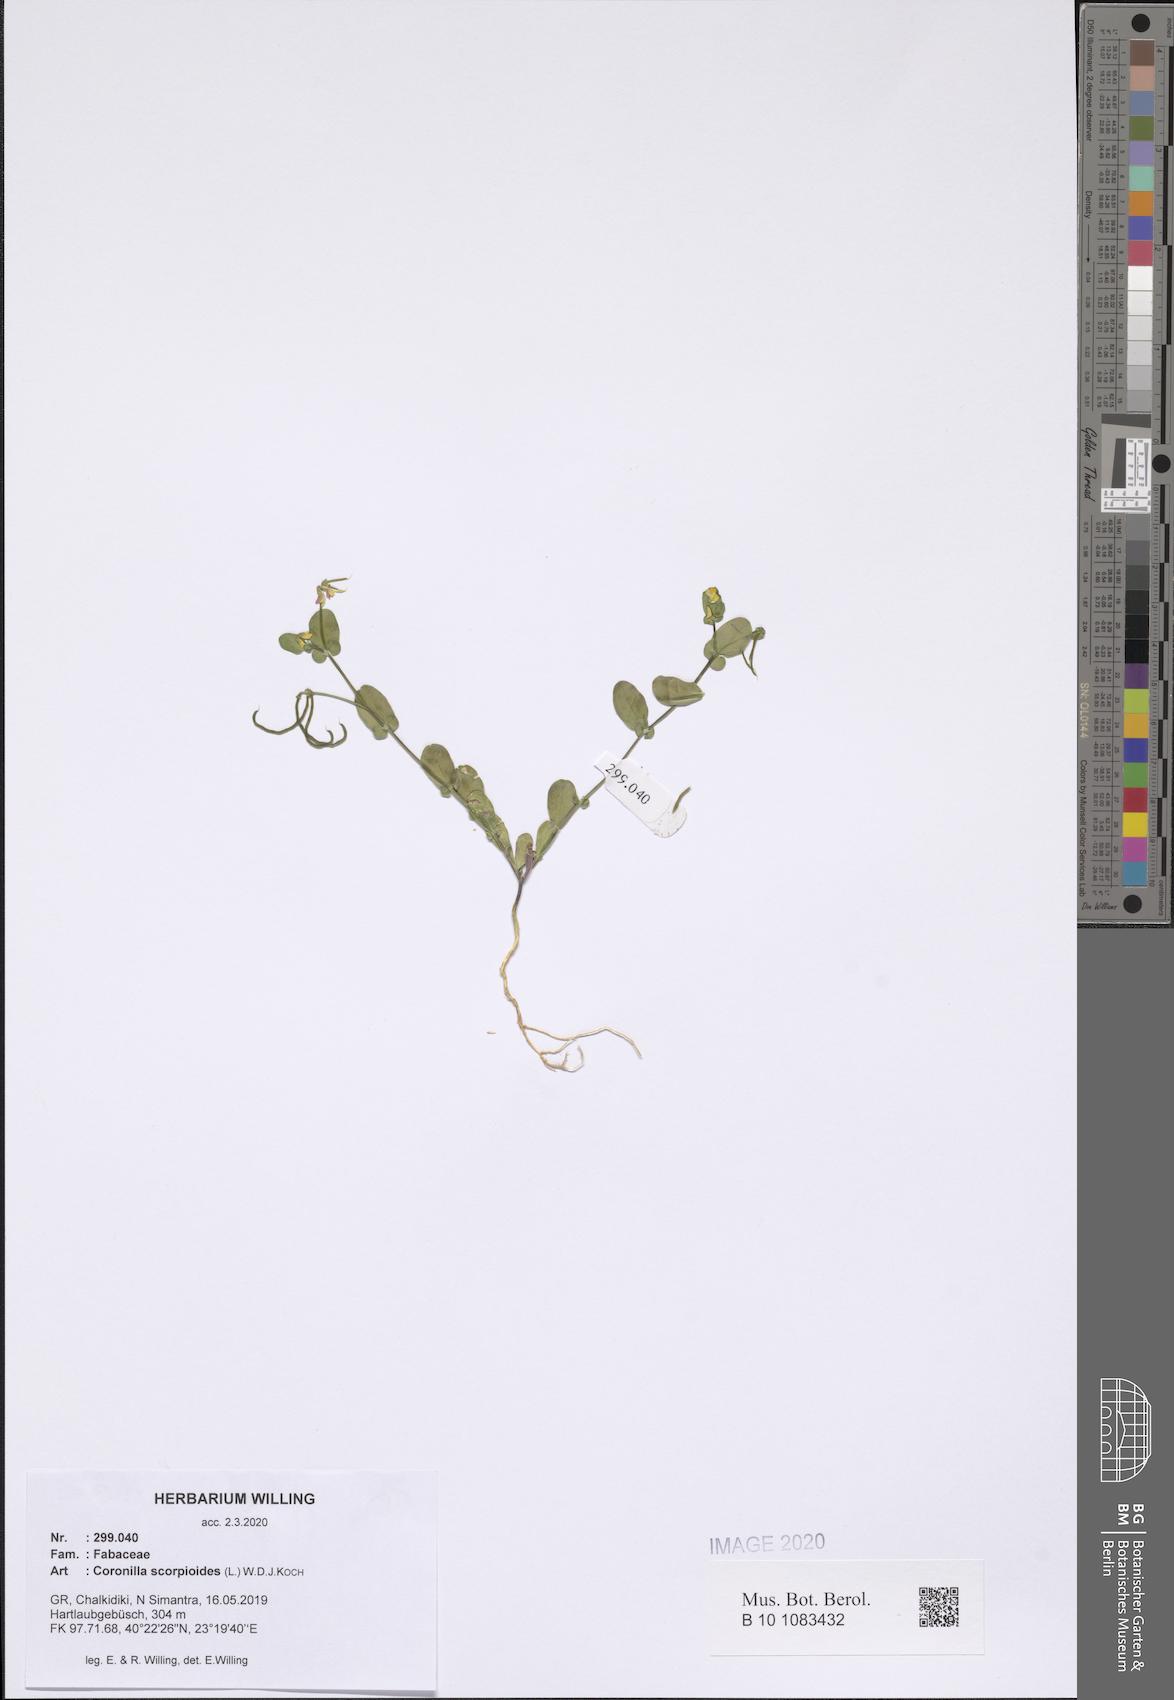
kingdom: Plantae
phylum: Tracheophyta
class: Magnoliopsida
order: Fabales
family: Fabaceae
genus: Coronilla
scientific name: Coronilla scorpioides
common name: Annual scorpion-vetch
